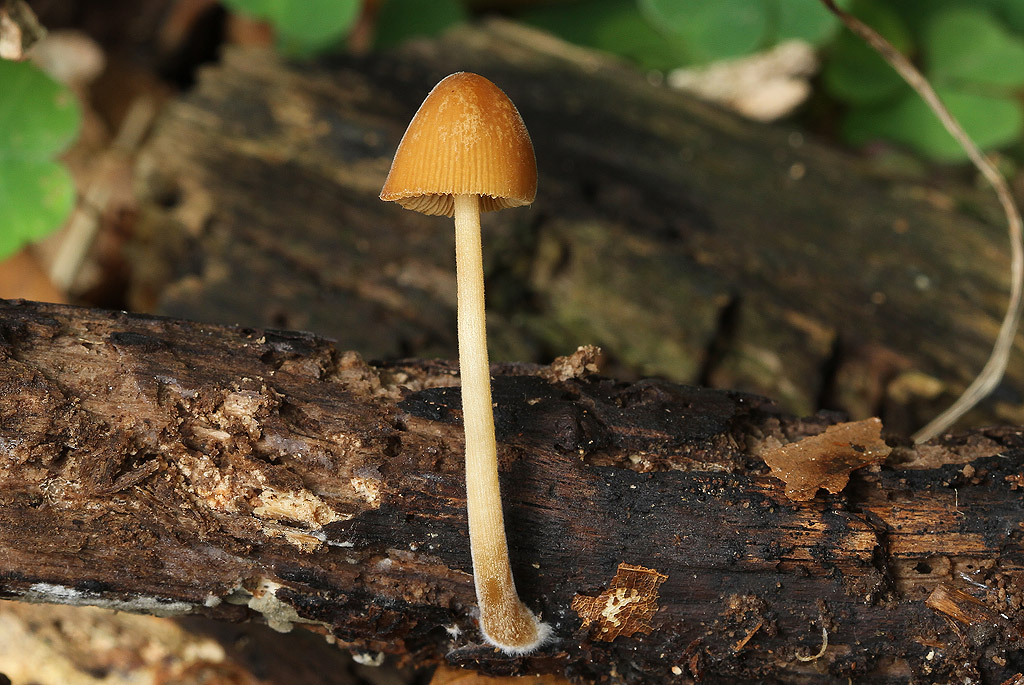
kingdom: Fungi
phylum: Basidiomycota
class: Agaricomycetes
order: Agaricales
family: Bolbitiaceae
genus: Conocybe
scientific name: Conocybe subpubescens
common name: krat-keglehat
